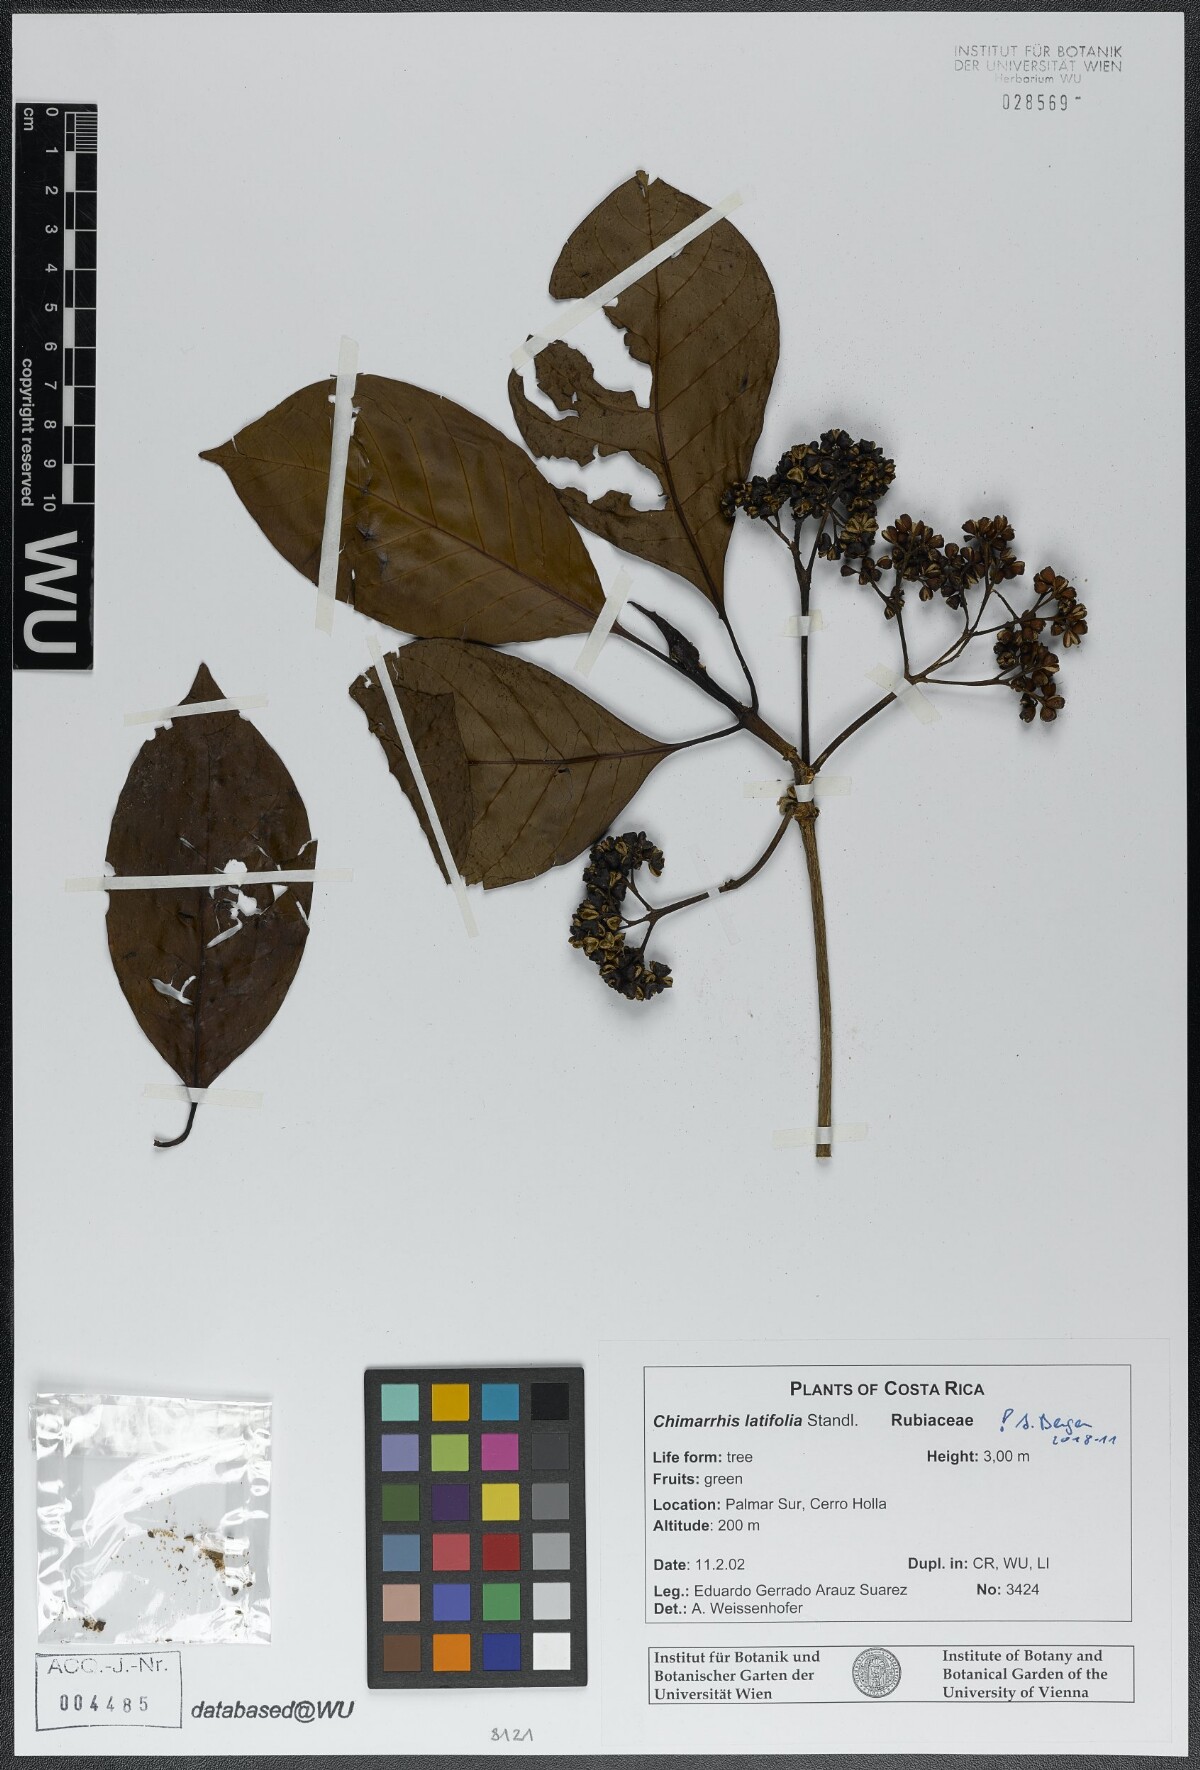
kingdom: Plantae
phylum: Tracheophyta
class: Magnoliopsida
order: Gentianales
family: Rubiaceae
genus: Chimarrhis
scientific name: Chimarrhis latifolia
